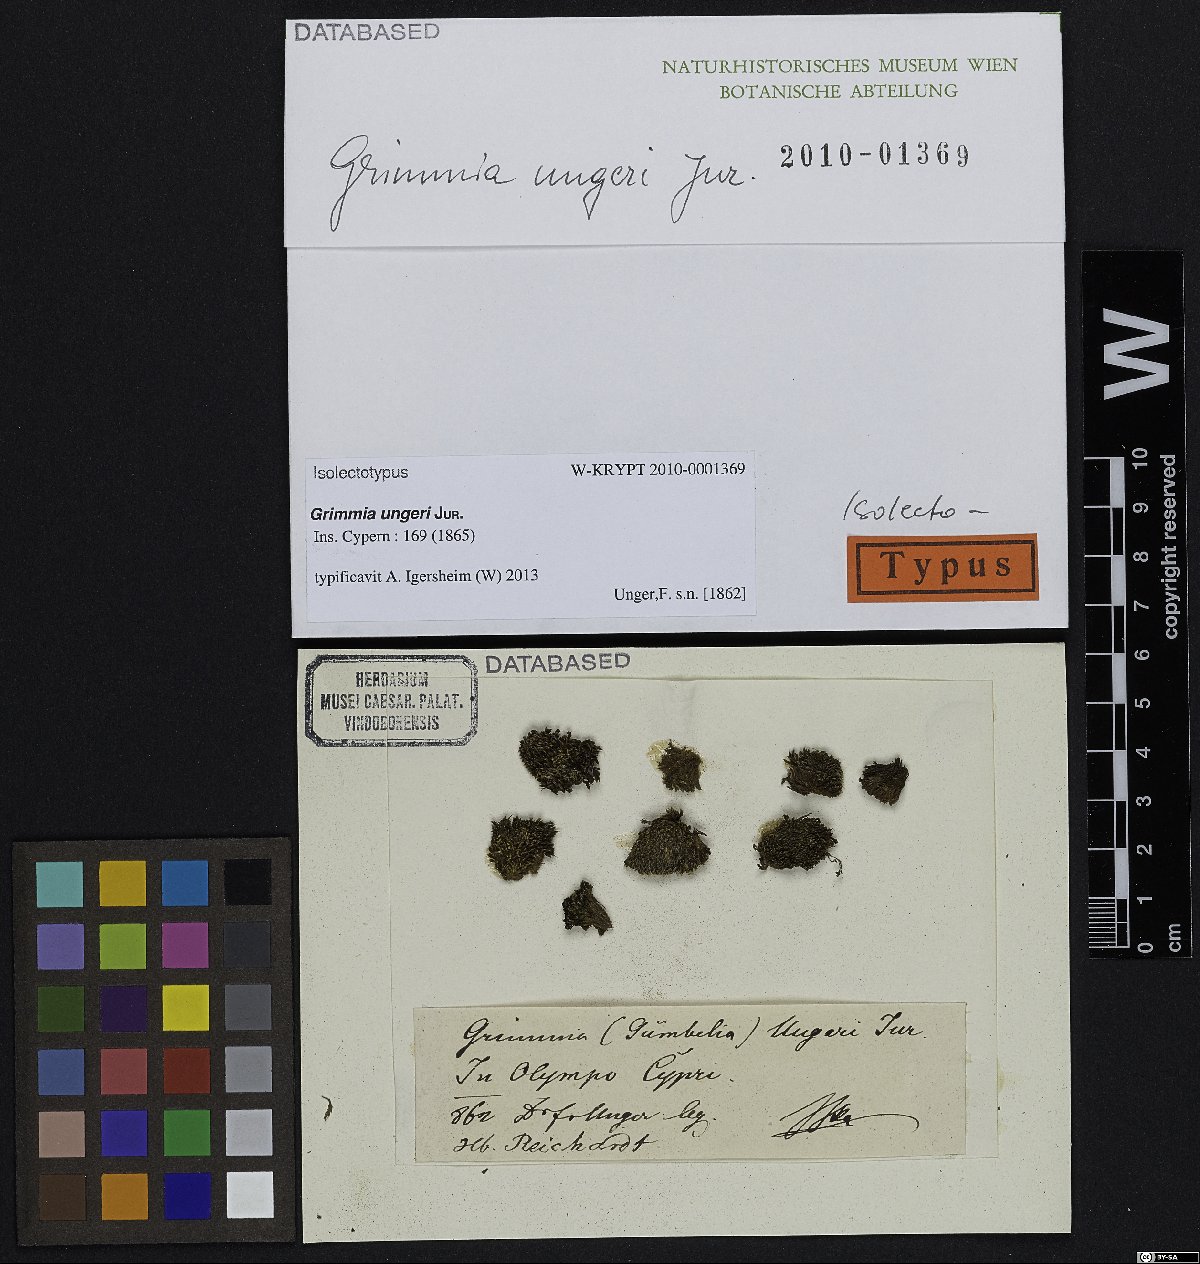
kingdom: Plantae
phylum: Bryophyta
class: Bryopsida
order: Grimmiales
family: Grimmiaceae
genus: Grimmia
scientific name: Grimmia ungeri
